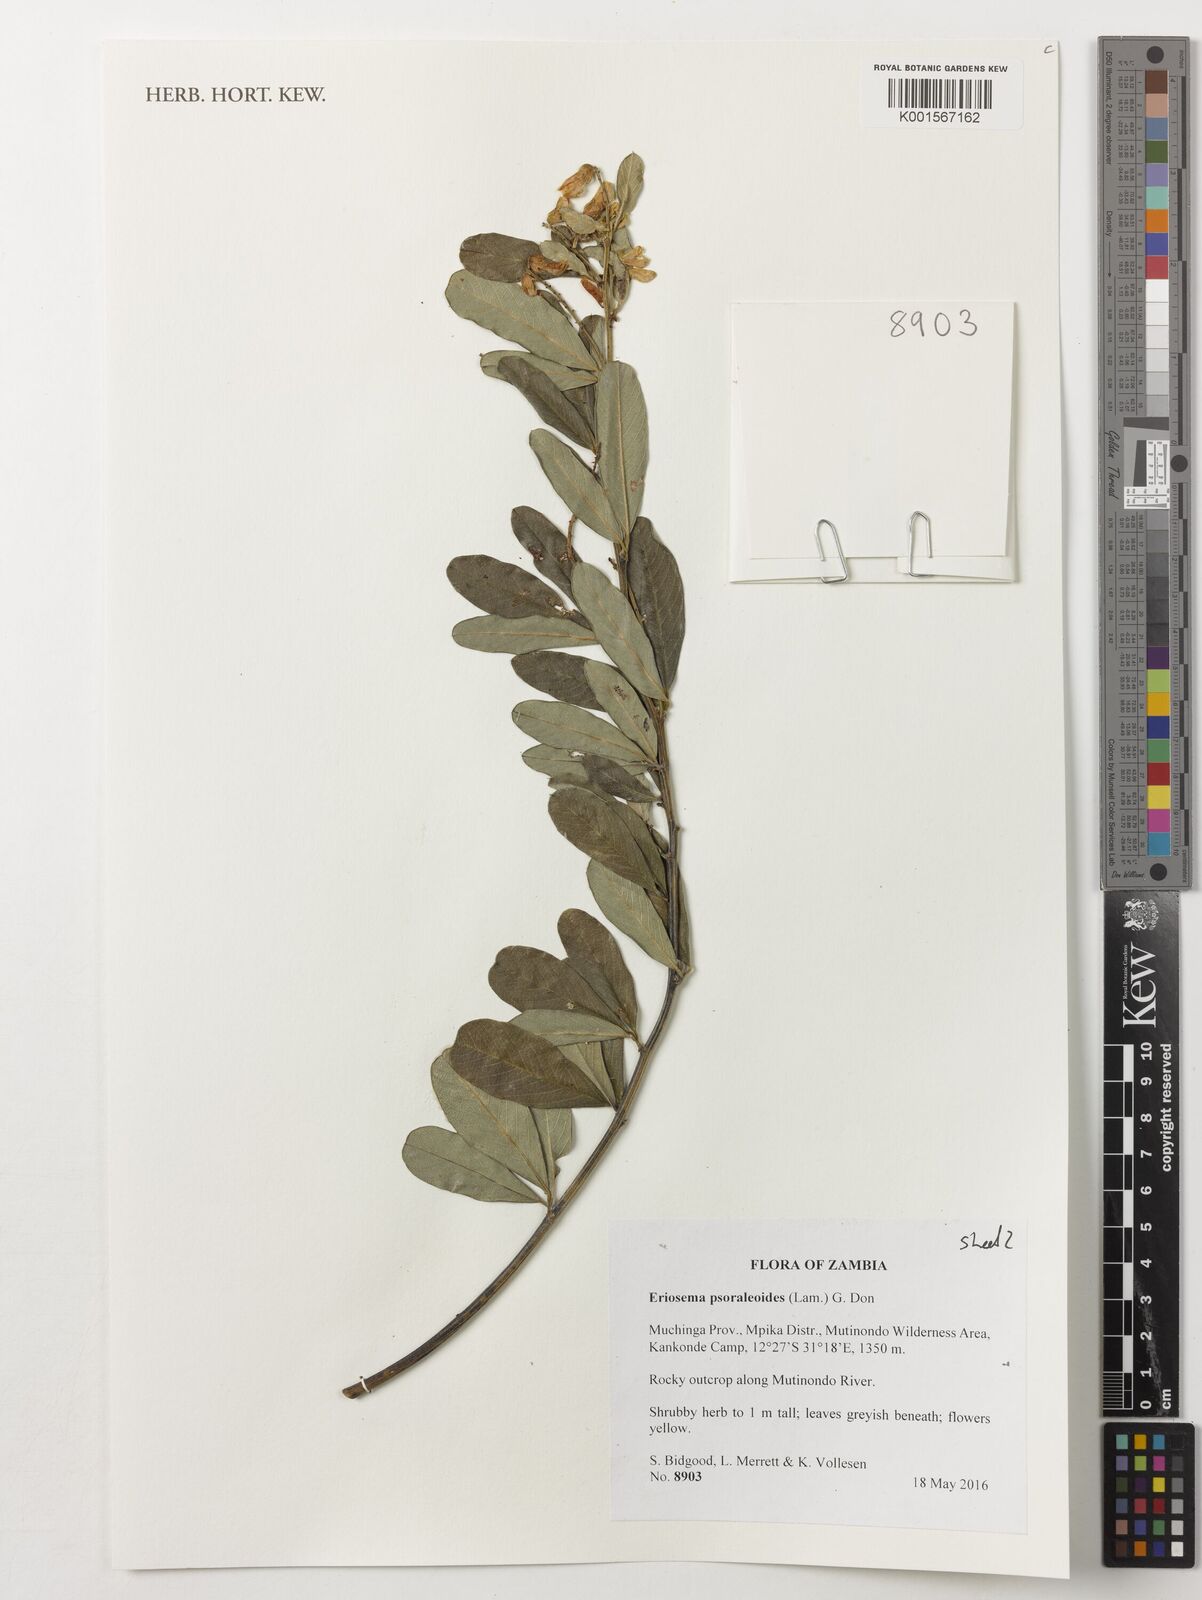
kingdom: Plantae
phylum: Tracheophyta
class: Magnoliopsida
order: Fabales
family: Fabaceae
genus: Eriosema
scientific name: Eriosema psoraleoides
